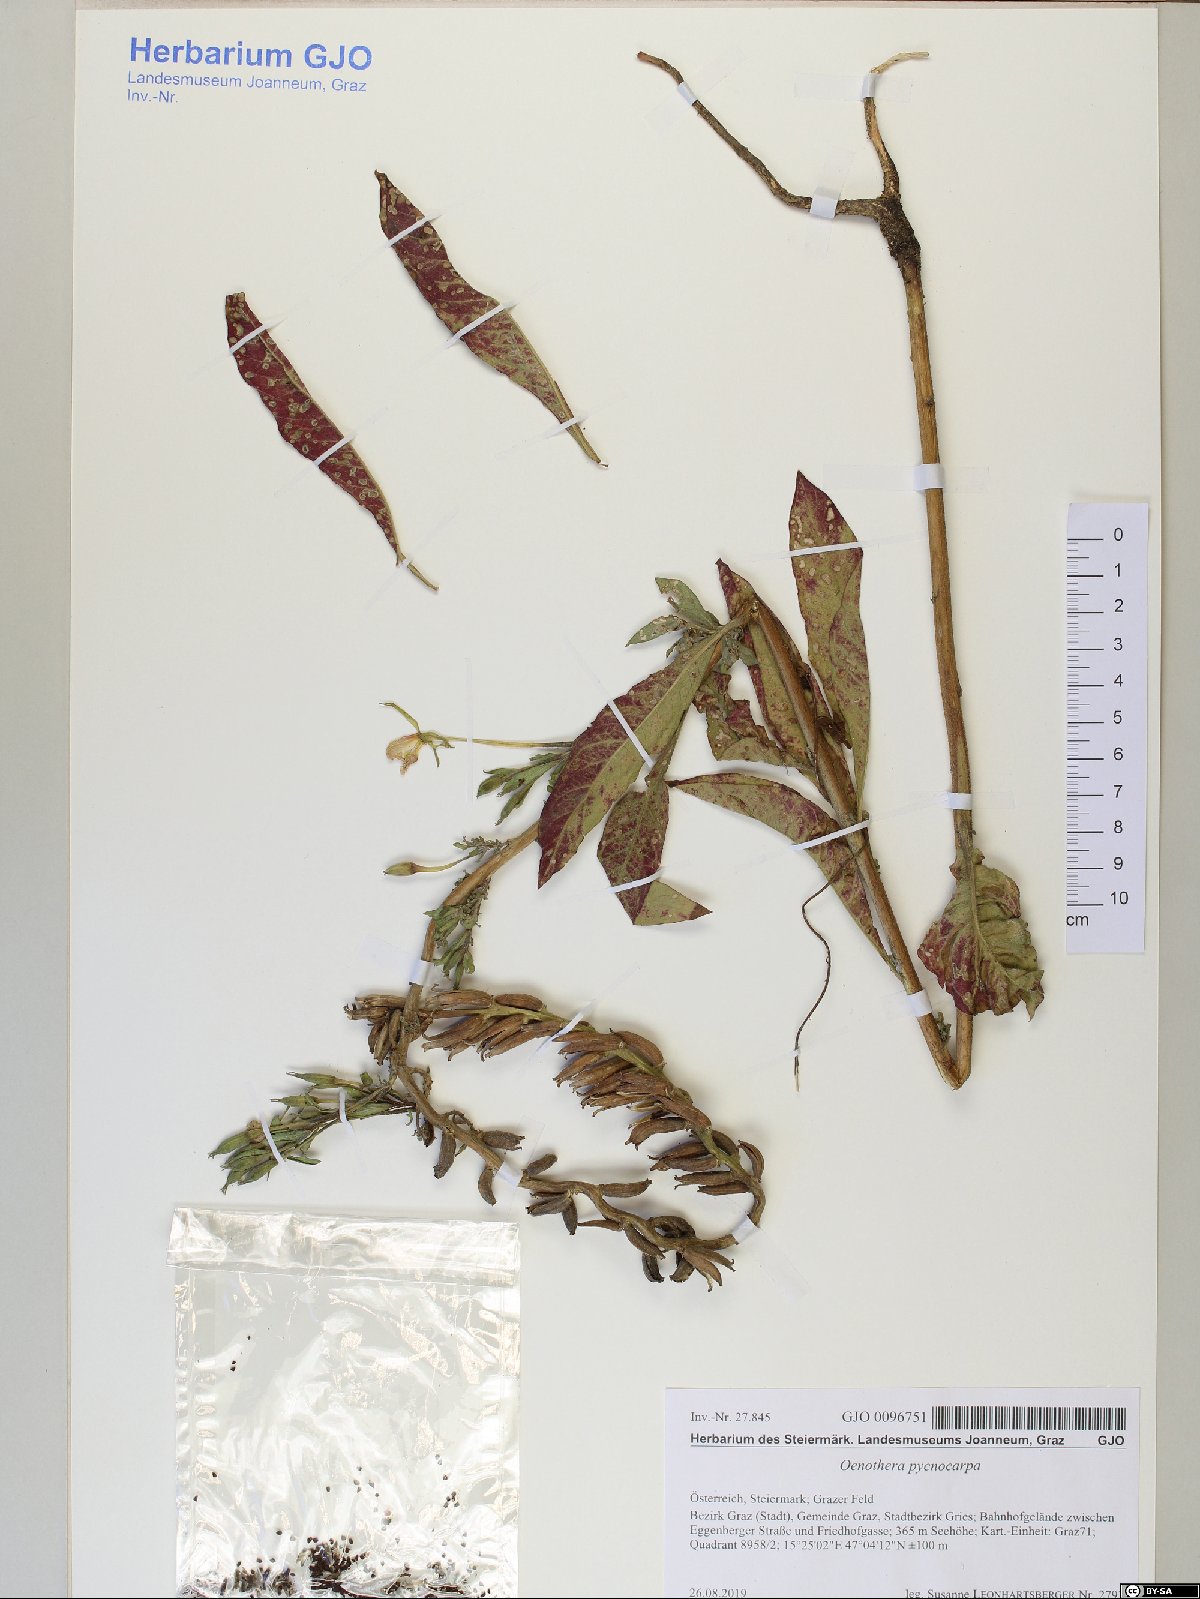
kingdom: Plantae
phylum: Tracheophyta
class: Magnoliopsida
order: Myrtales
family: Onagraceae
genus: Oenothera
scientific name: Oenothera biennis
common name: Common evening-primrose
